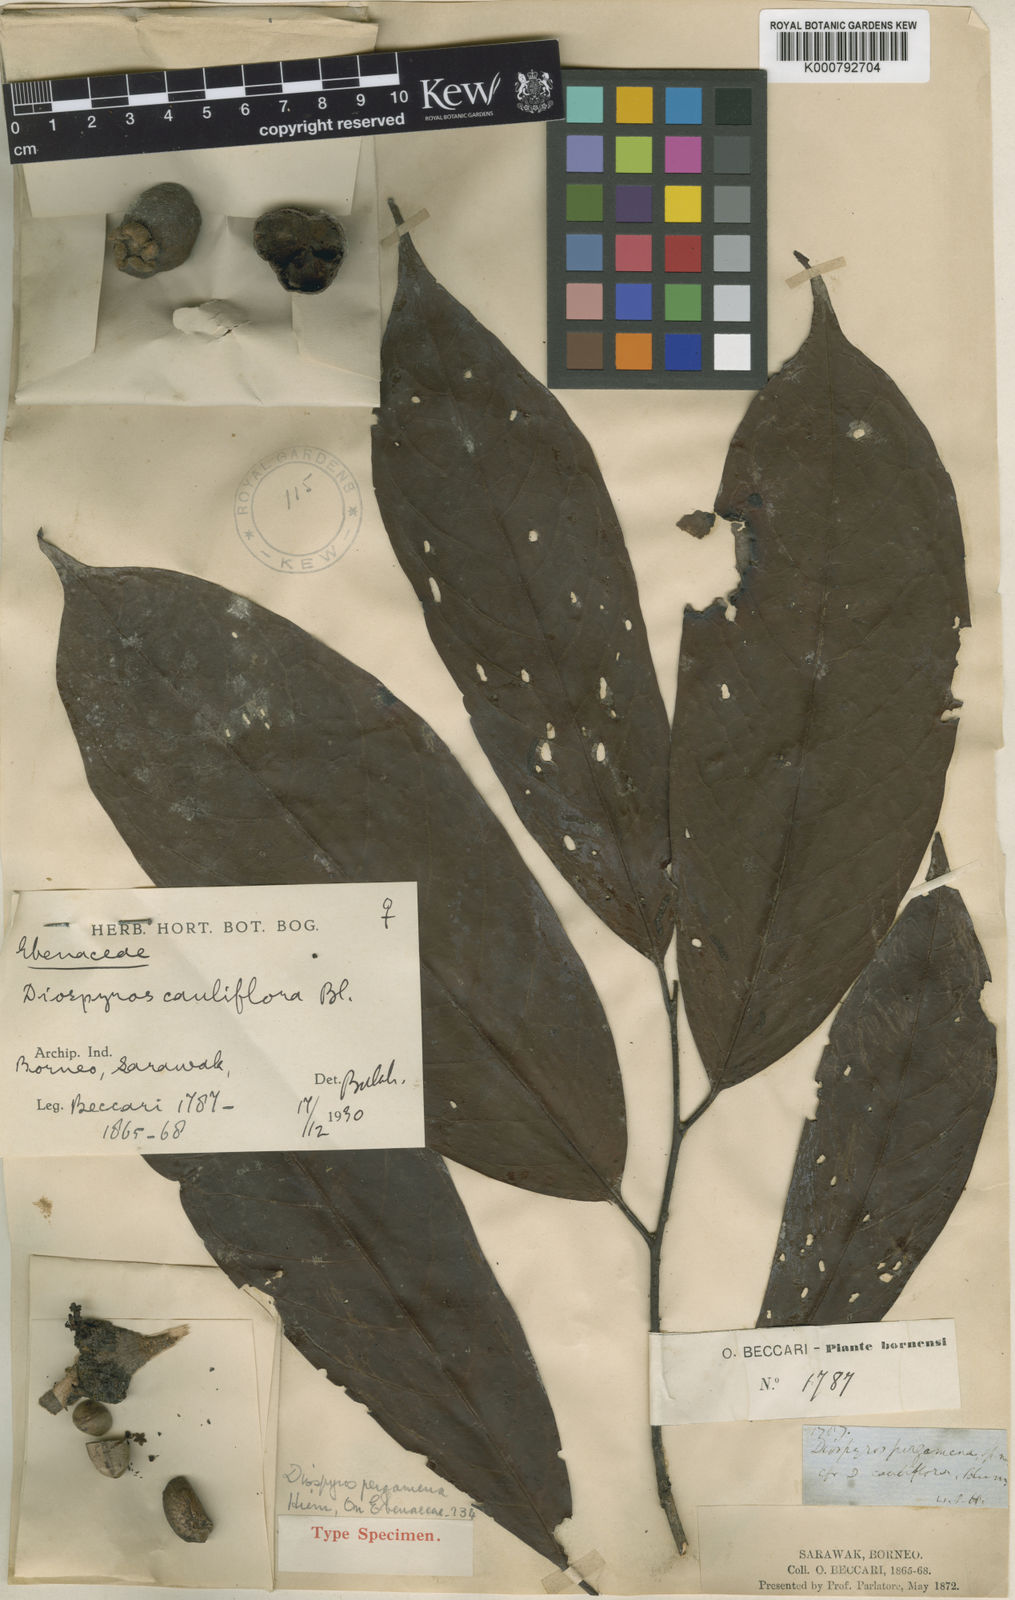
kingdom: Plantae
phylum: Tracheophyta
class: Magnoliopsida
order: Ericales
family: Ebenaceae
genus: Diospyros
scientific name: Diospyros cauliflora
